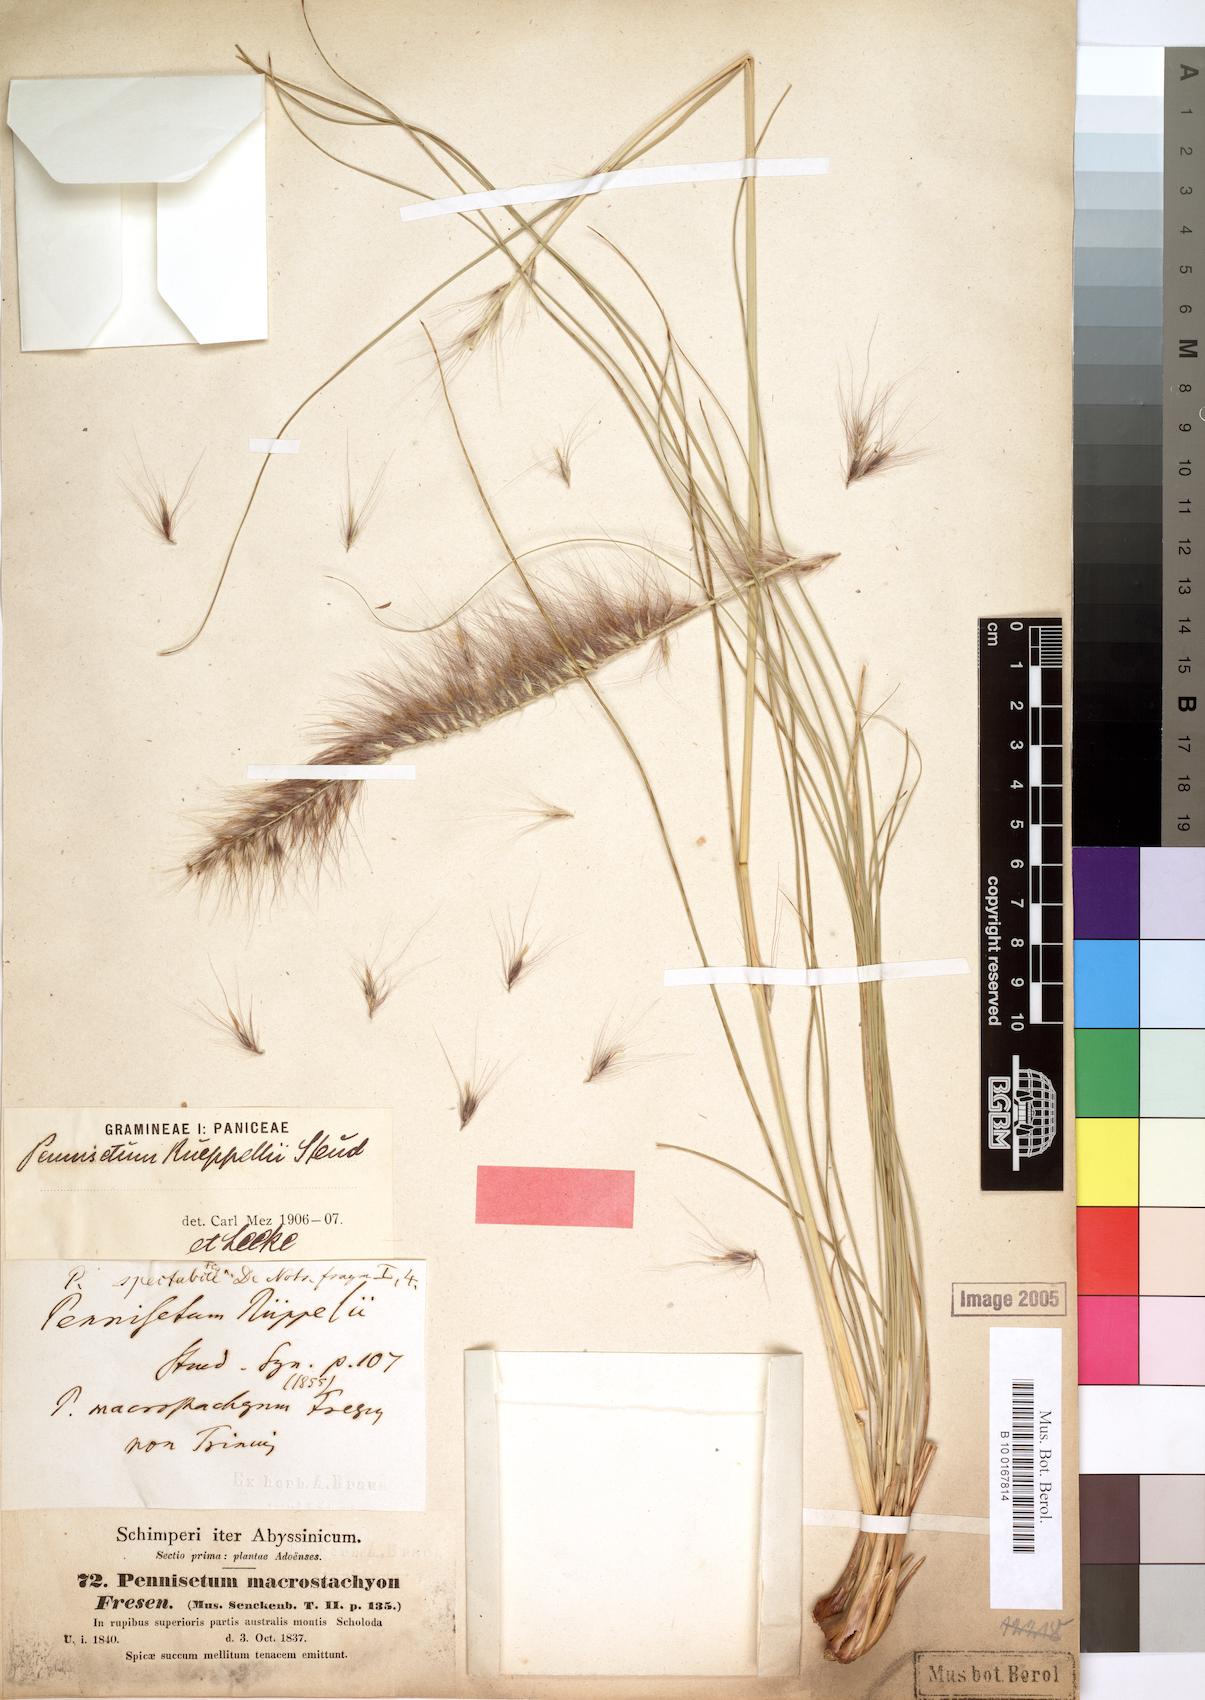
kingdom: Plantae
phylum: Tracheophyta
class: Liliopsida
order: Poales
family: Poaceae
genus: Cenchrus
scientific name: Cenchrus setaceus
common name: Crimson fountaingrass
